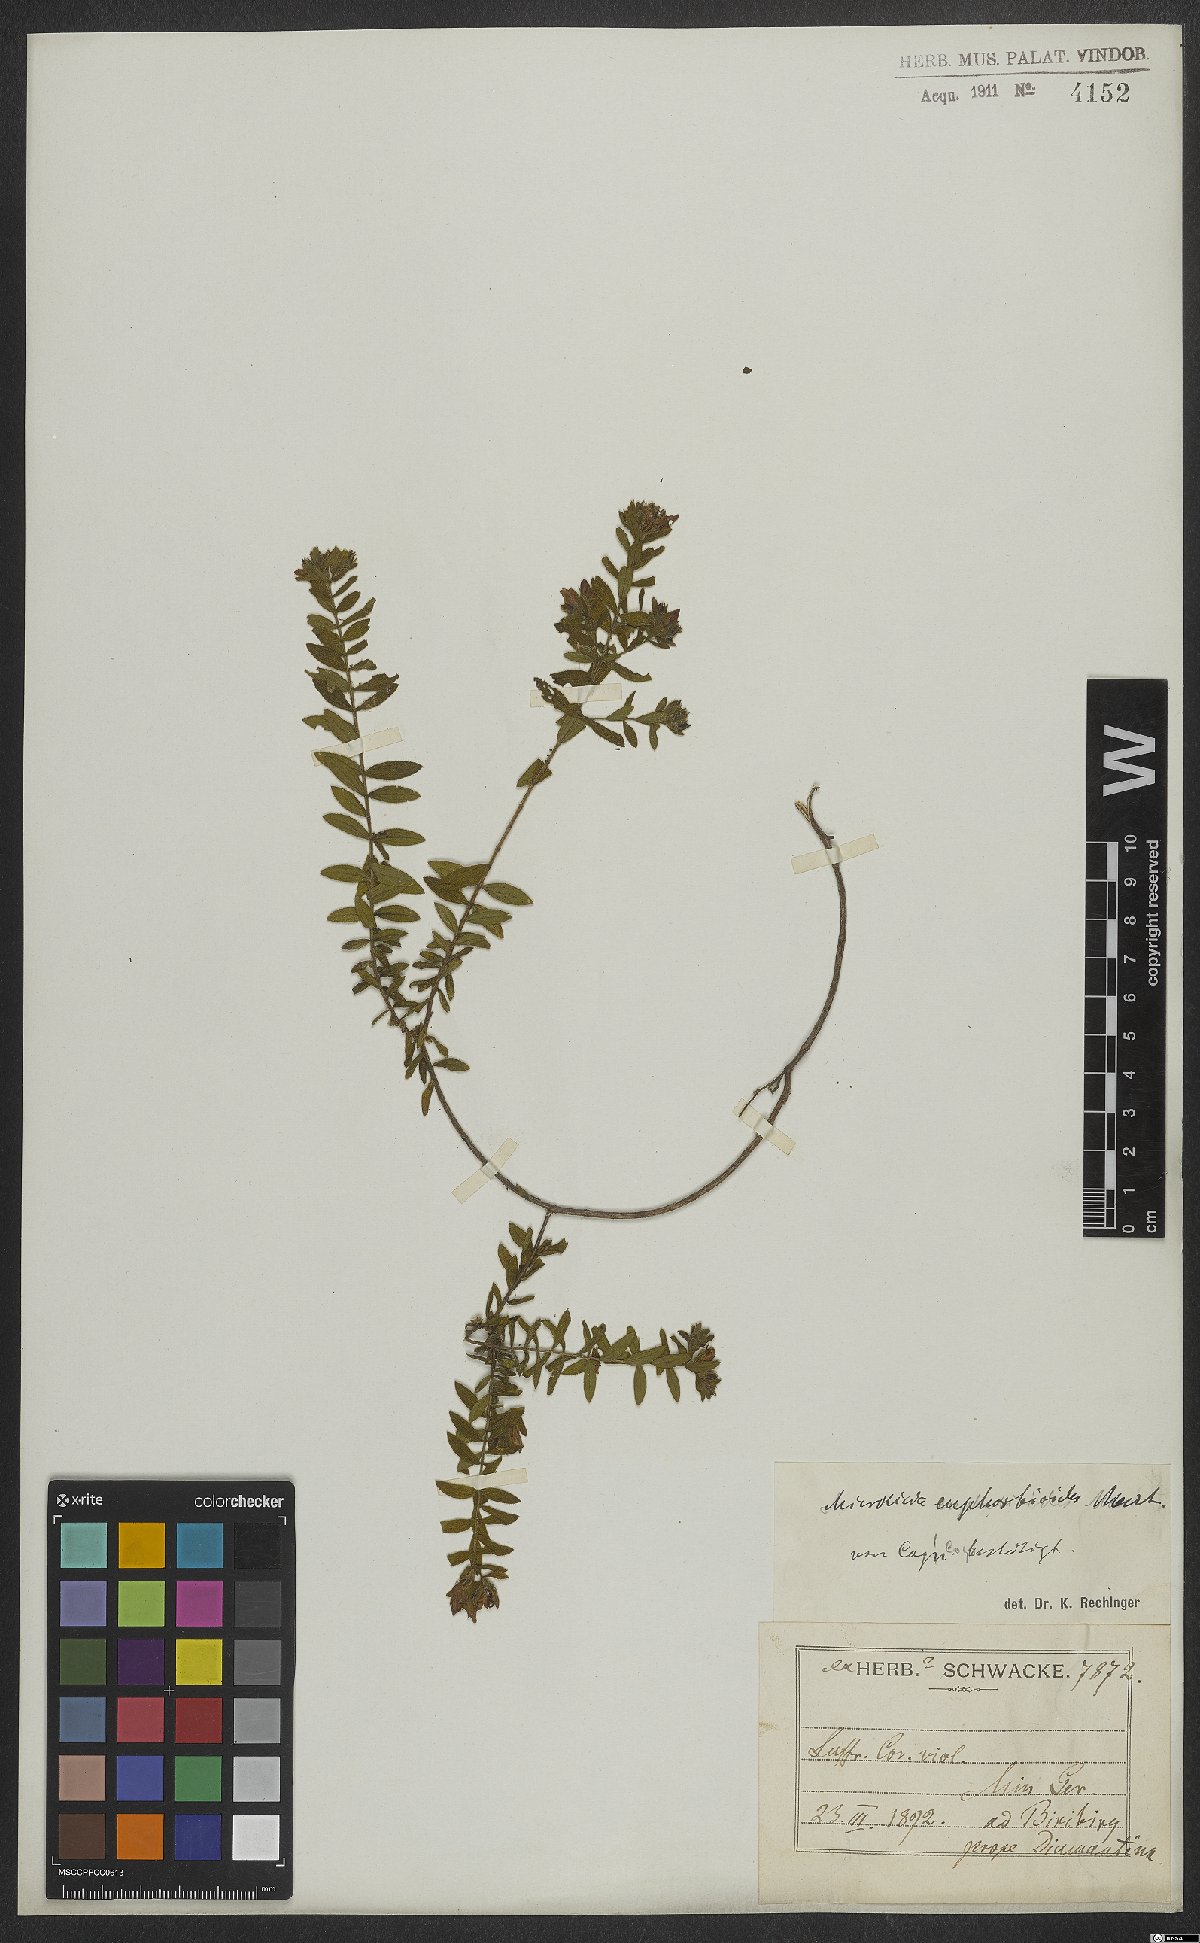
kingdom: Plantae
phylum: Tracheophyta
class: Magnoliopsida
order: Myrtales
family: Melastomataceae
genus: Microlicia
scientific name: Microlicia euphorbioides
